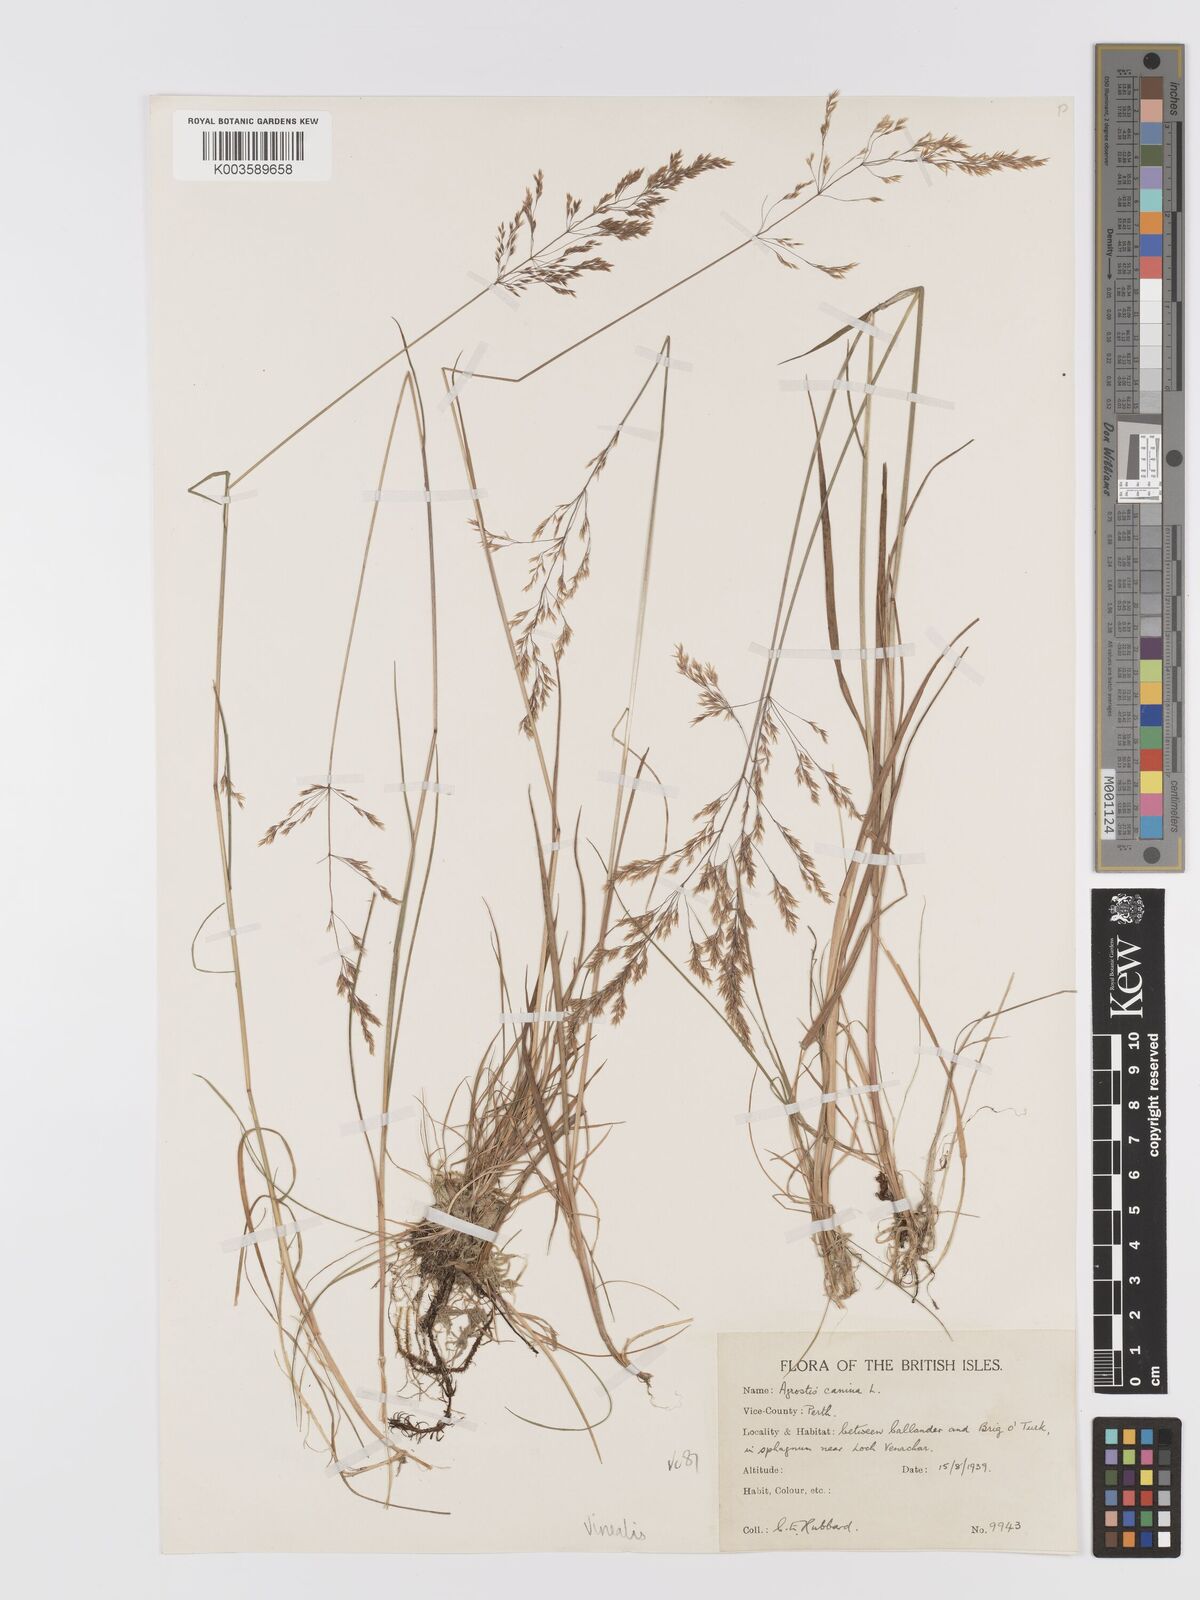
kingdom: Plantae
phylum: Tracheophyta
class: Liliopsida
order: Poales
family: Poaceae
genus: Agrostis
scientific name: Agrostis
